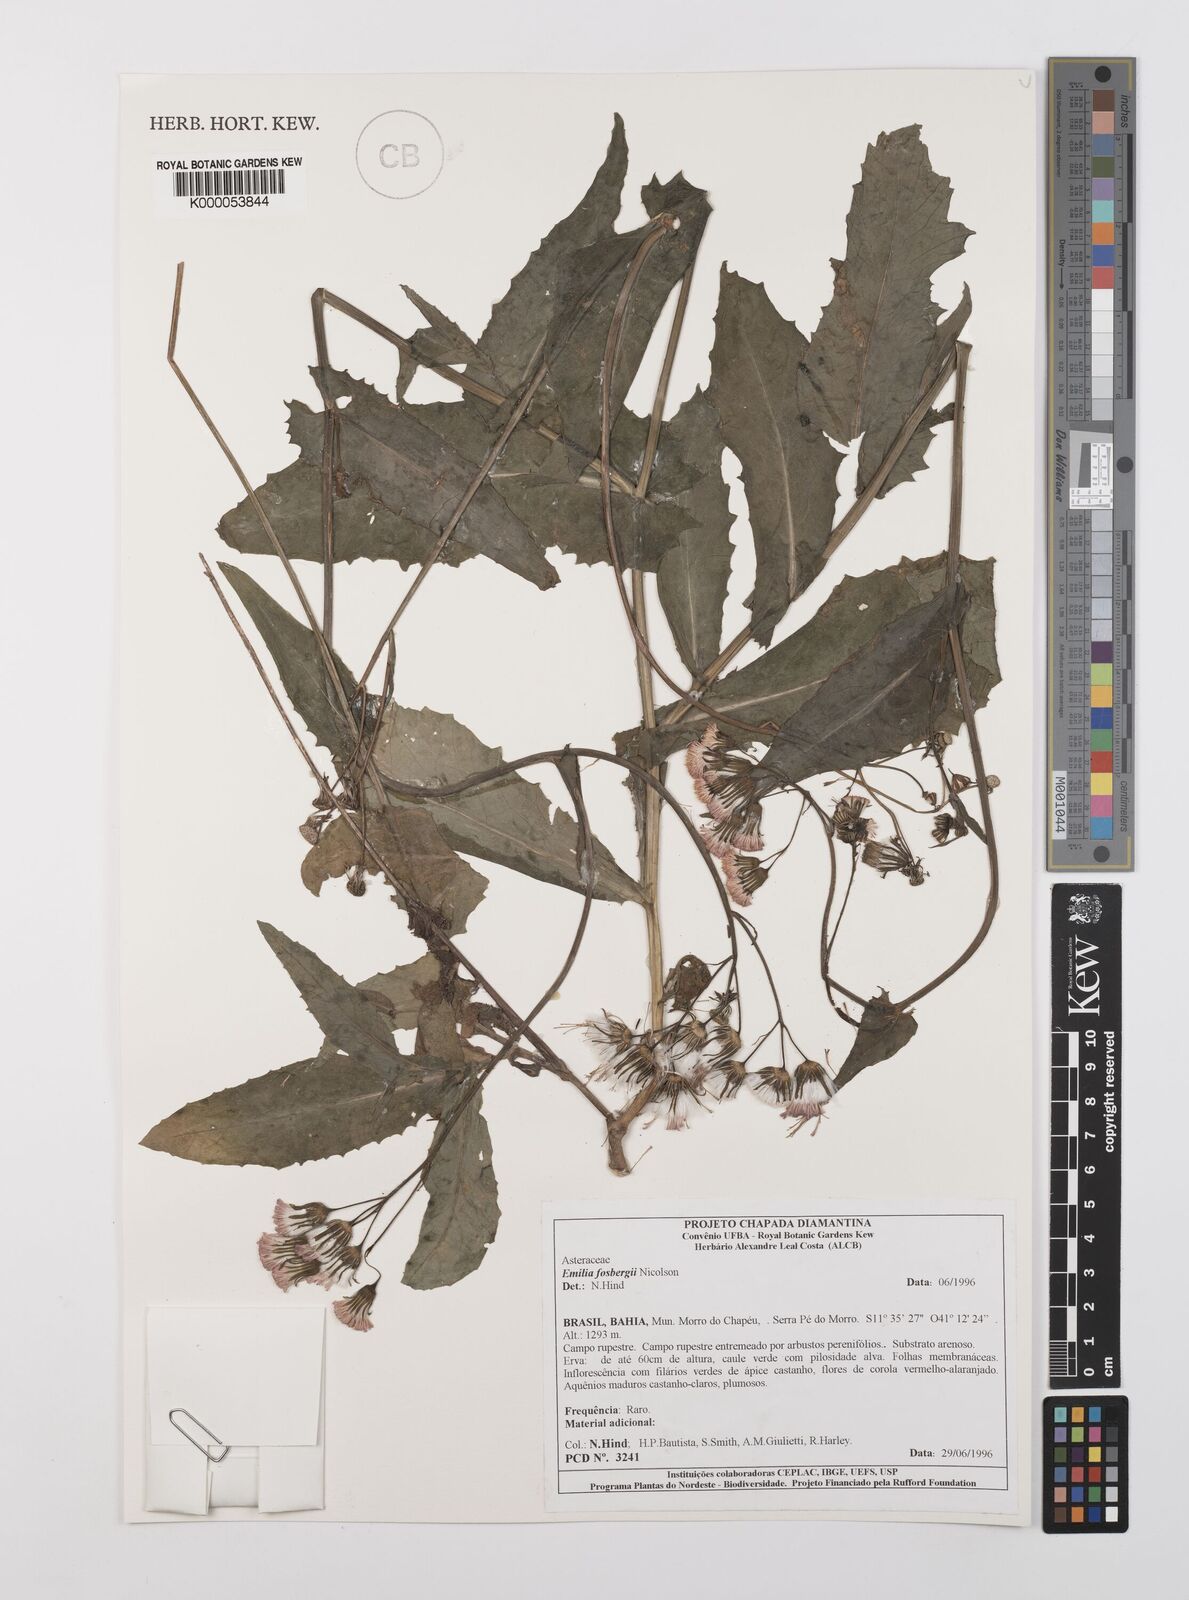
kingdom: Plantae
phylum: Tracheophyta
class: Magnoliopsida
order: Asterales
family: Asteraceae
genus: Emilia
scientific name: Emilia fosbergii
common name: Florida tasselflower
